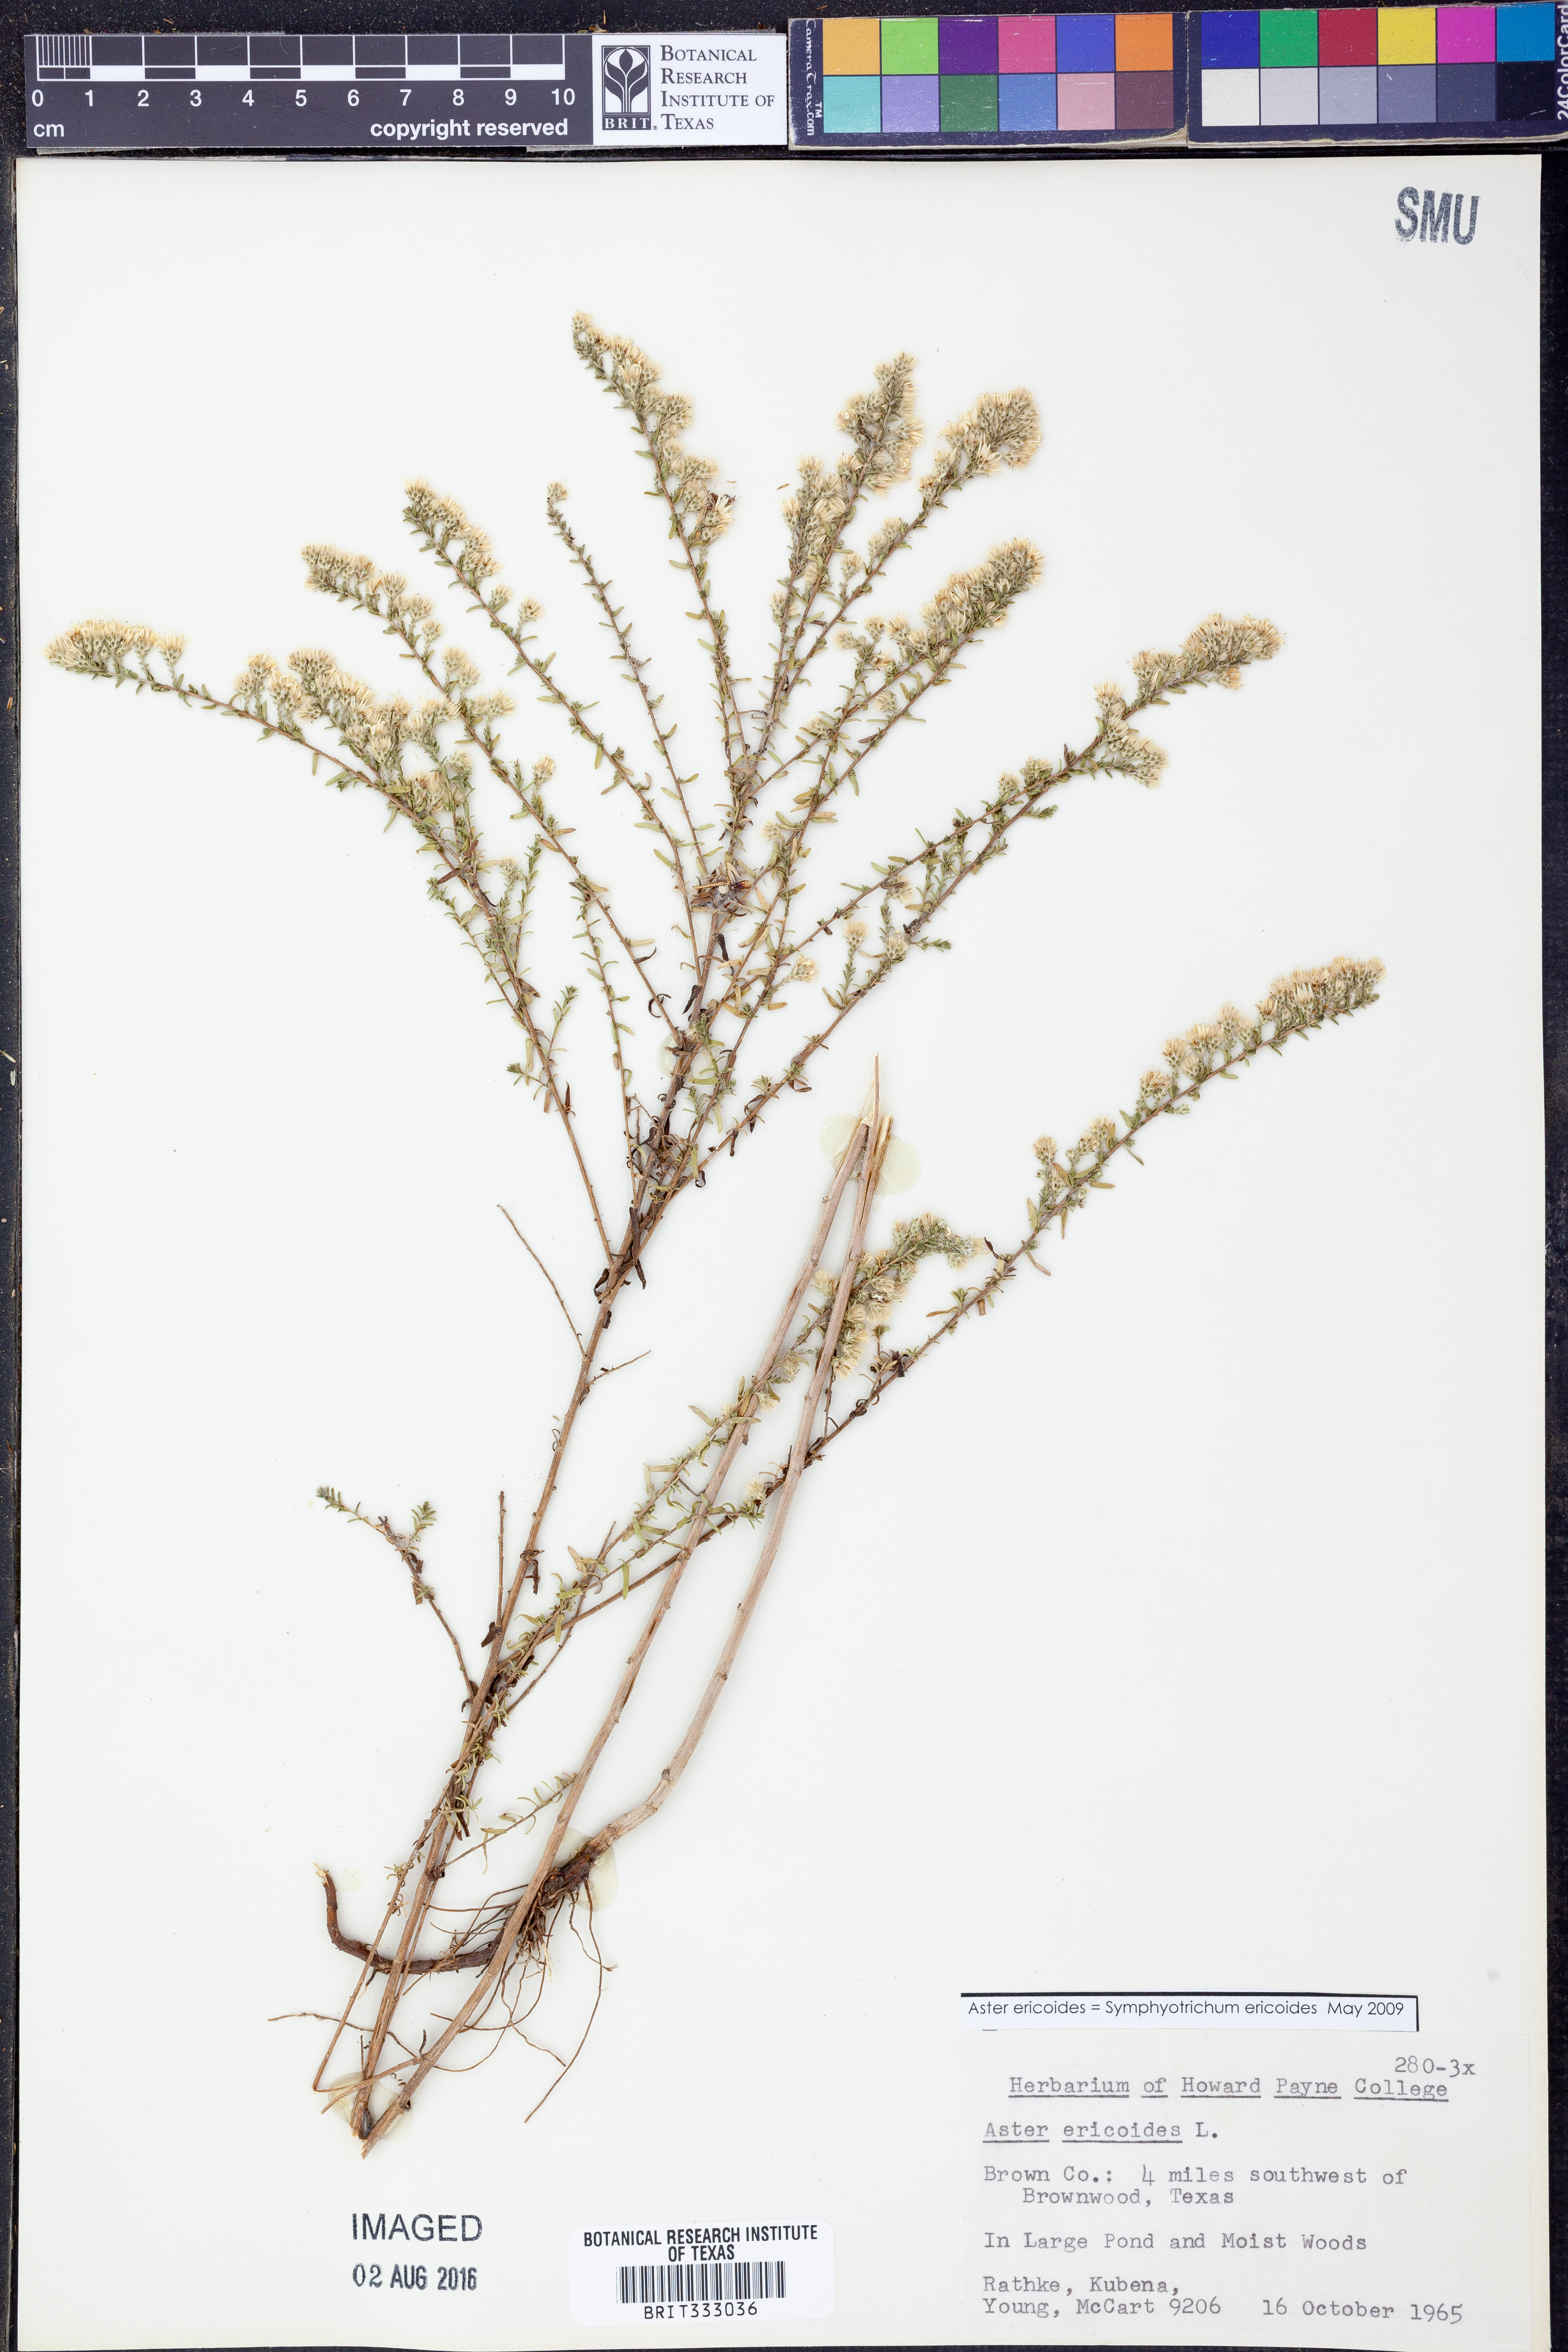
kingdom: Plantae
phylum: Tracheophyta
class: Magnoliopsida
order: Asterales
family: Asteraceae
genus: Symphyotrichum
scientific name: Symphyotrichum ericoides
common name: Heath aster
